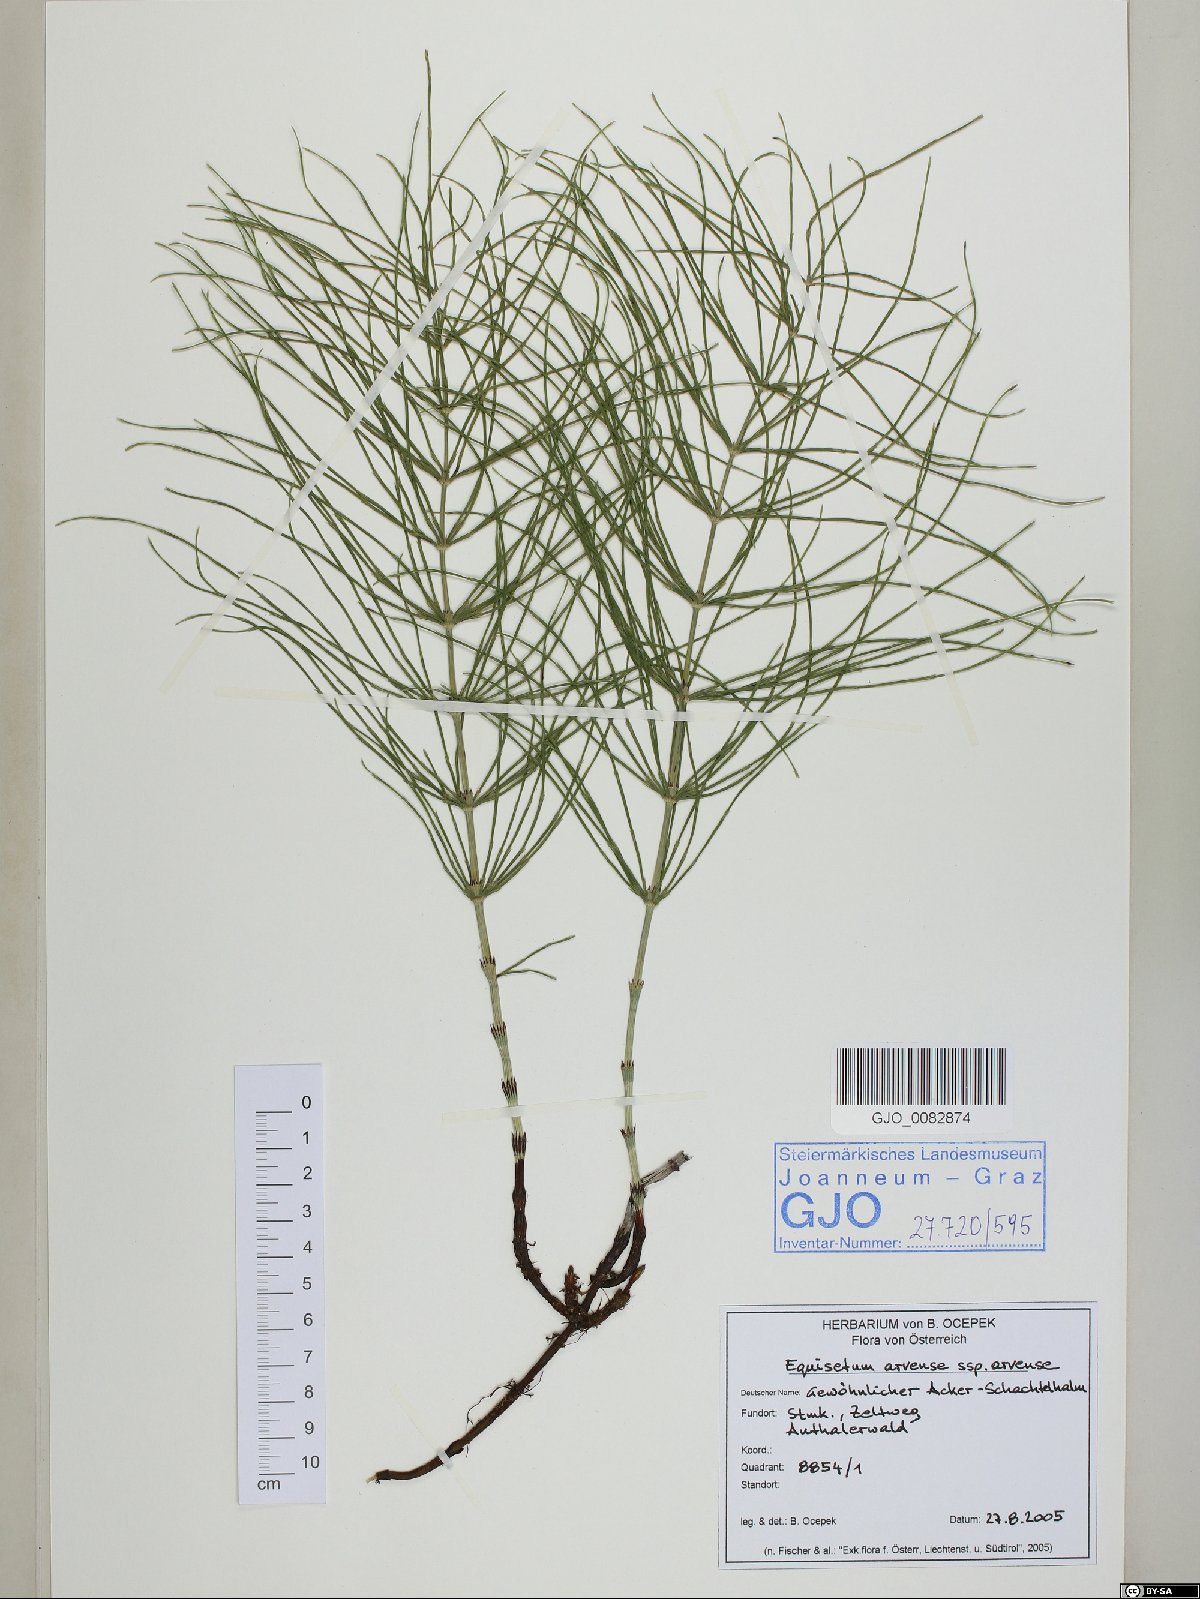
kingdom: Plantae
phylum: Tracheophyta
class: Polypodiopsida
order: Equisetales
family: Equisetaceae
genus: Equisetum
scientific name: Equisetum arvense
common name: Field horsetail
